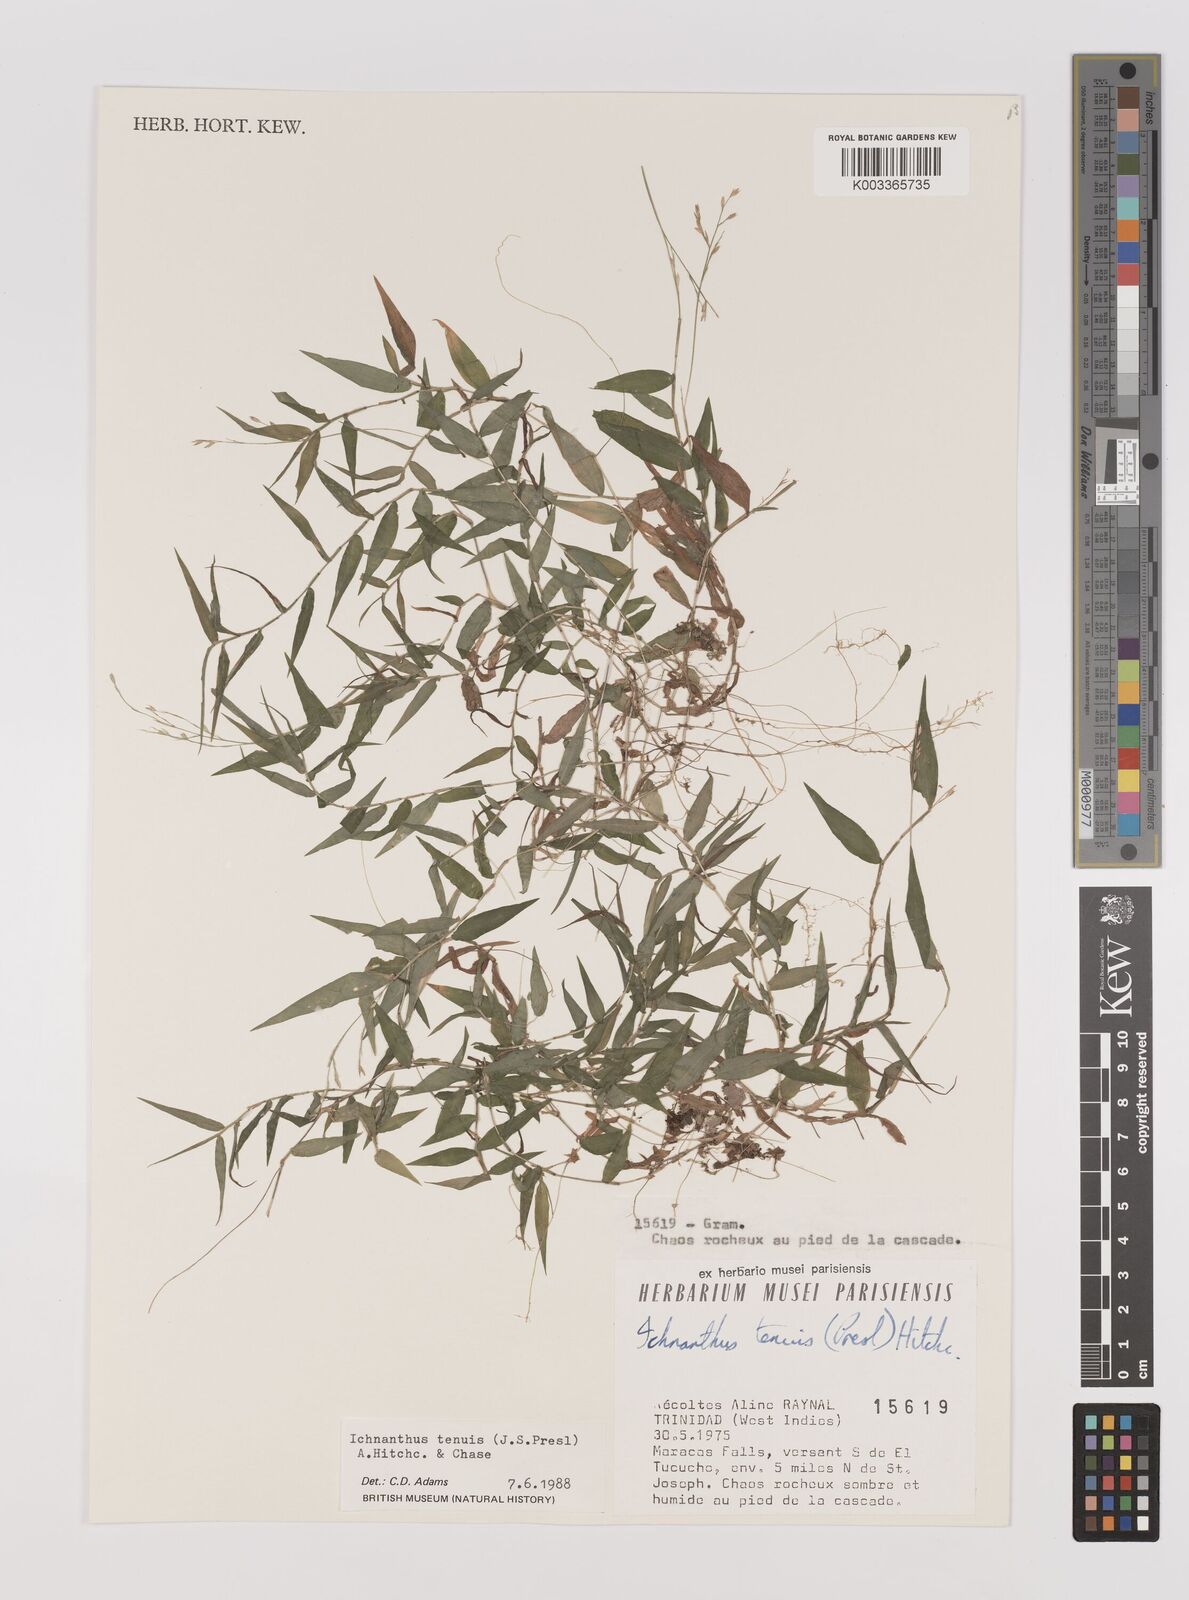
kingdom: Plantae
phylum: Tracheophyta
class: Liliopsida
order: Poales
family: Poaceae
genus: Ichnanthus
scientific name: Ichnanthus tenuis
